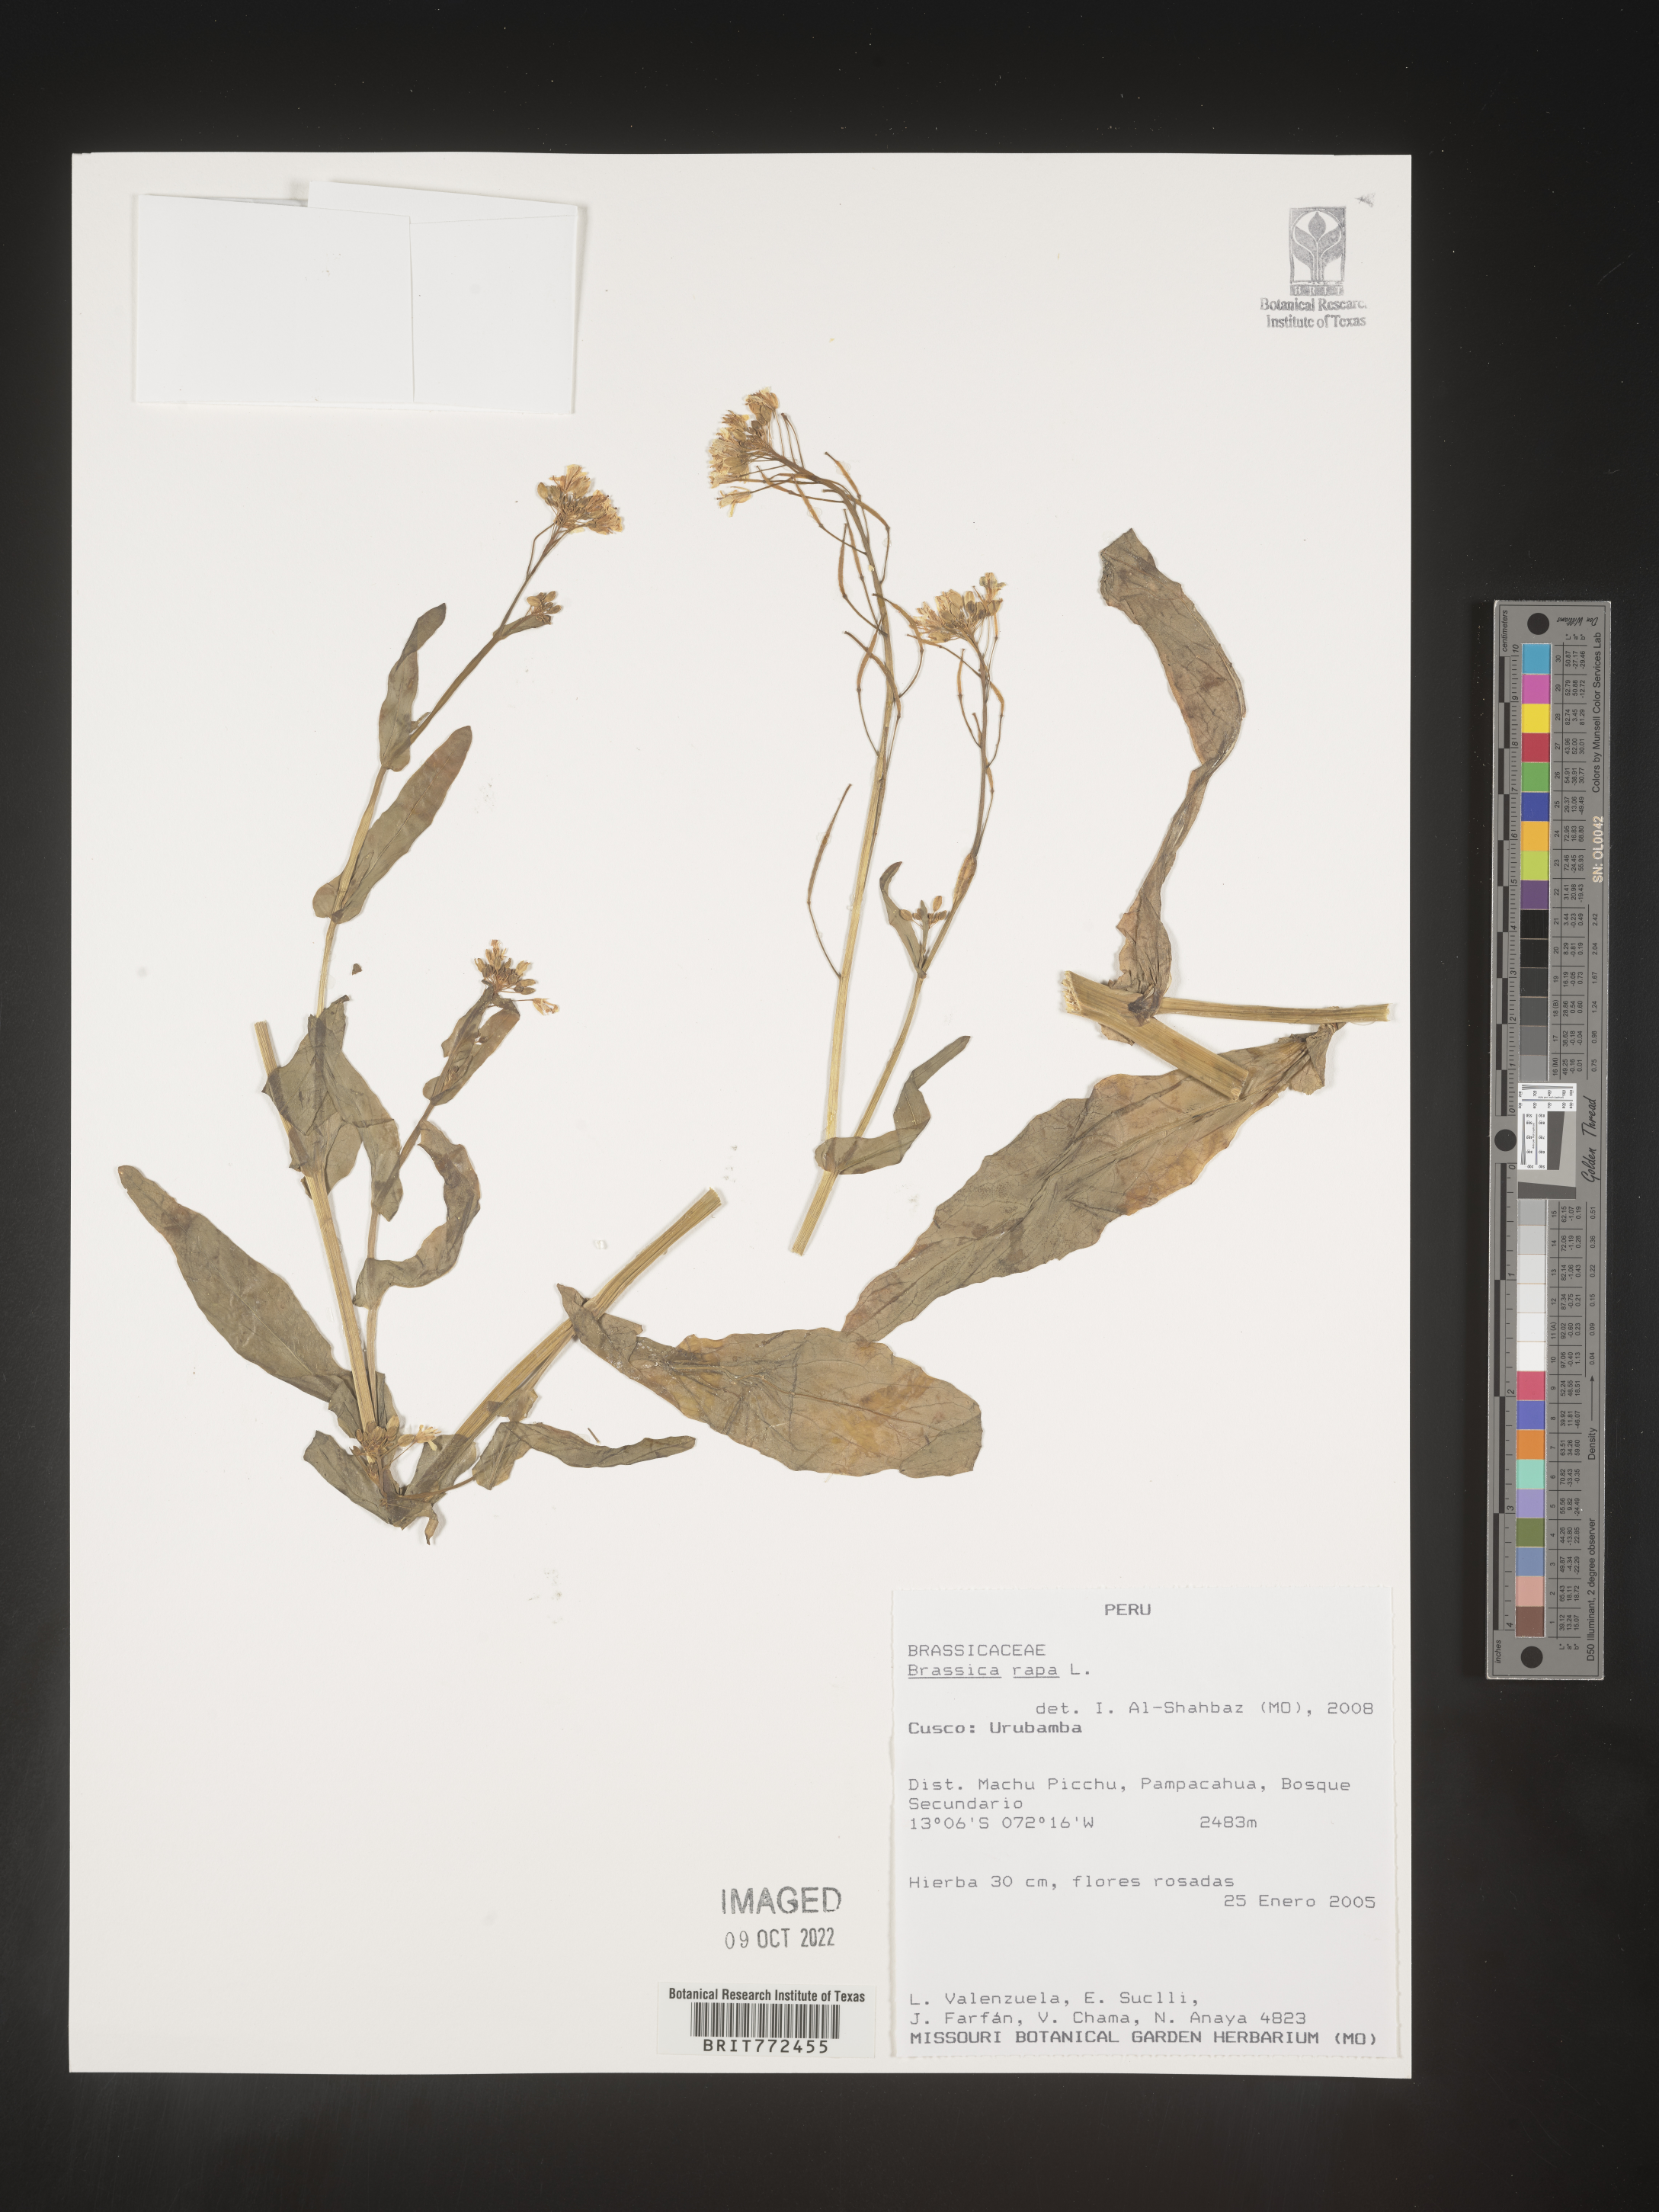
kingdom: Plantae
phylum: Tracheophyta
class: Magnoliopsida
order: Brassicales
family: Brassicaceae
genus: Brassica
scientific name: Brassica
